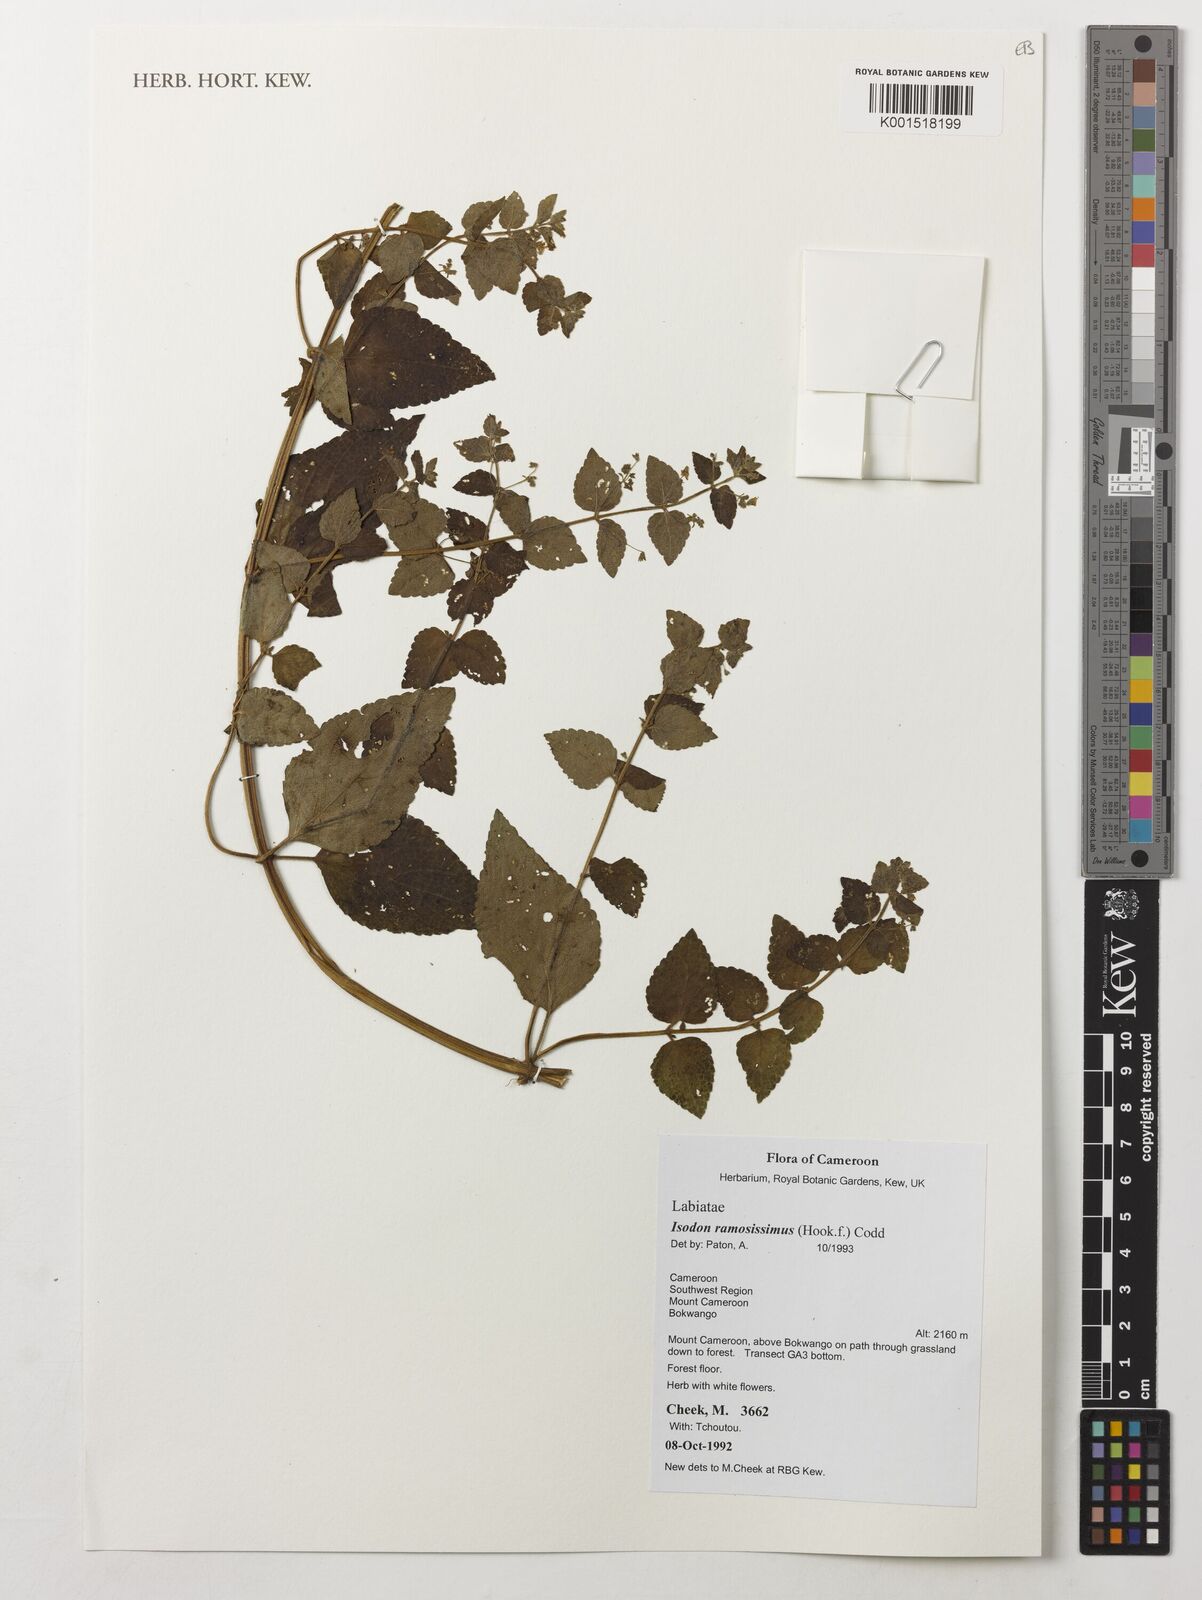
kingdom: Plantae
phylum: Tracheophyta
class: Magnoliopsida
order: Lamiales
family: Lamiaceae
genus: Isodon
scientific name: Isodon ramosissimus
